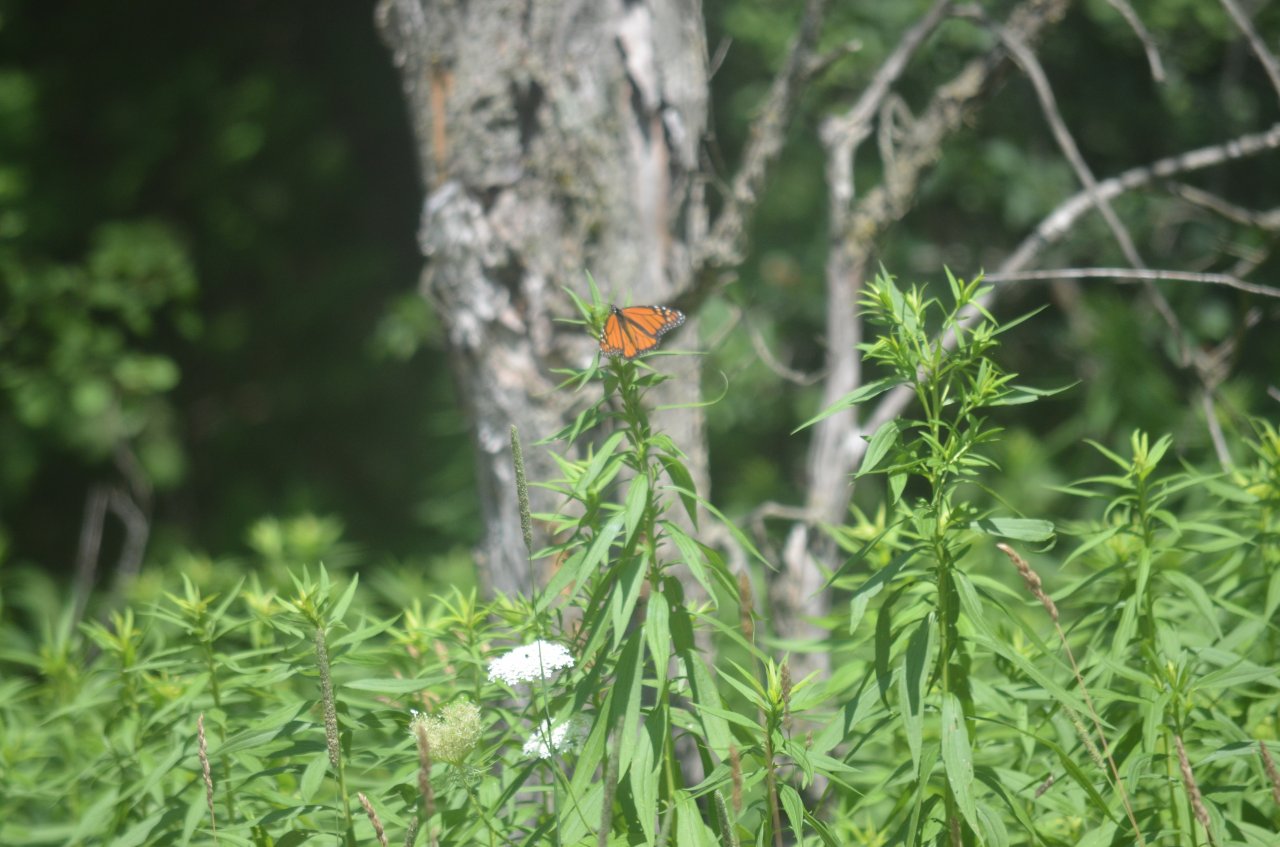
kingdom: Animalia
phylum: Arthropoda
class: Insecta
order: Lepidoptera
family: Nymphalidae
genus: Danaus
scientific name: Danaus plexippus
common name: Monarch
